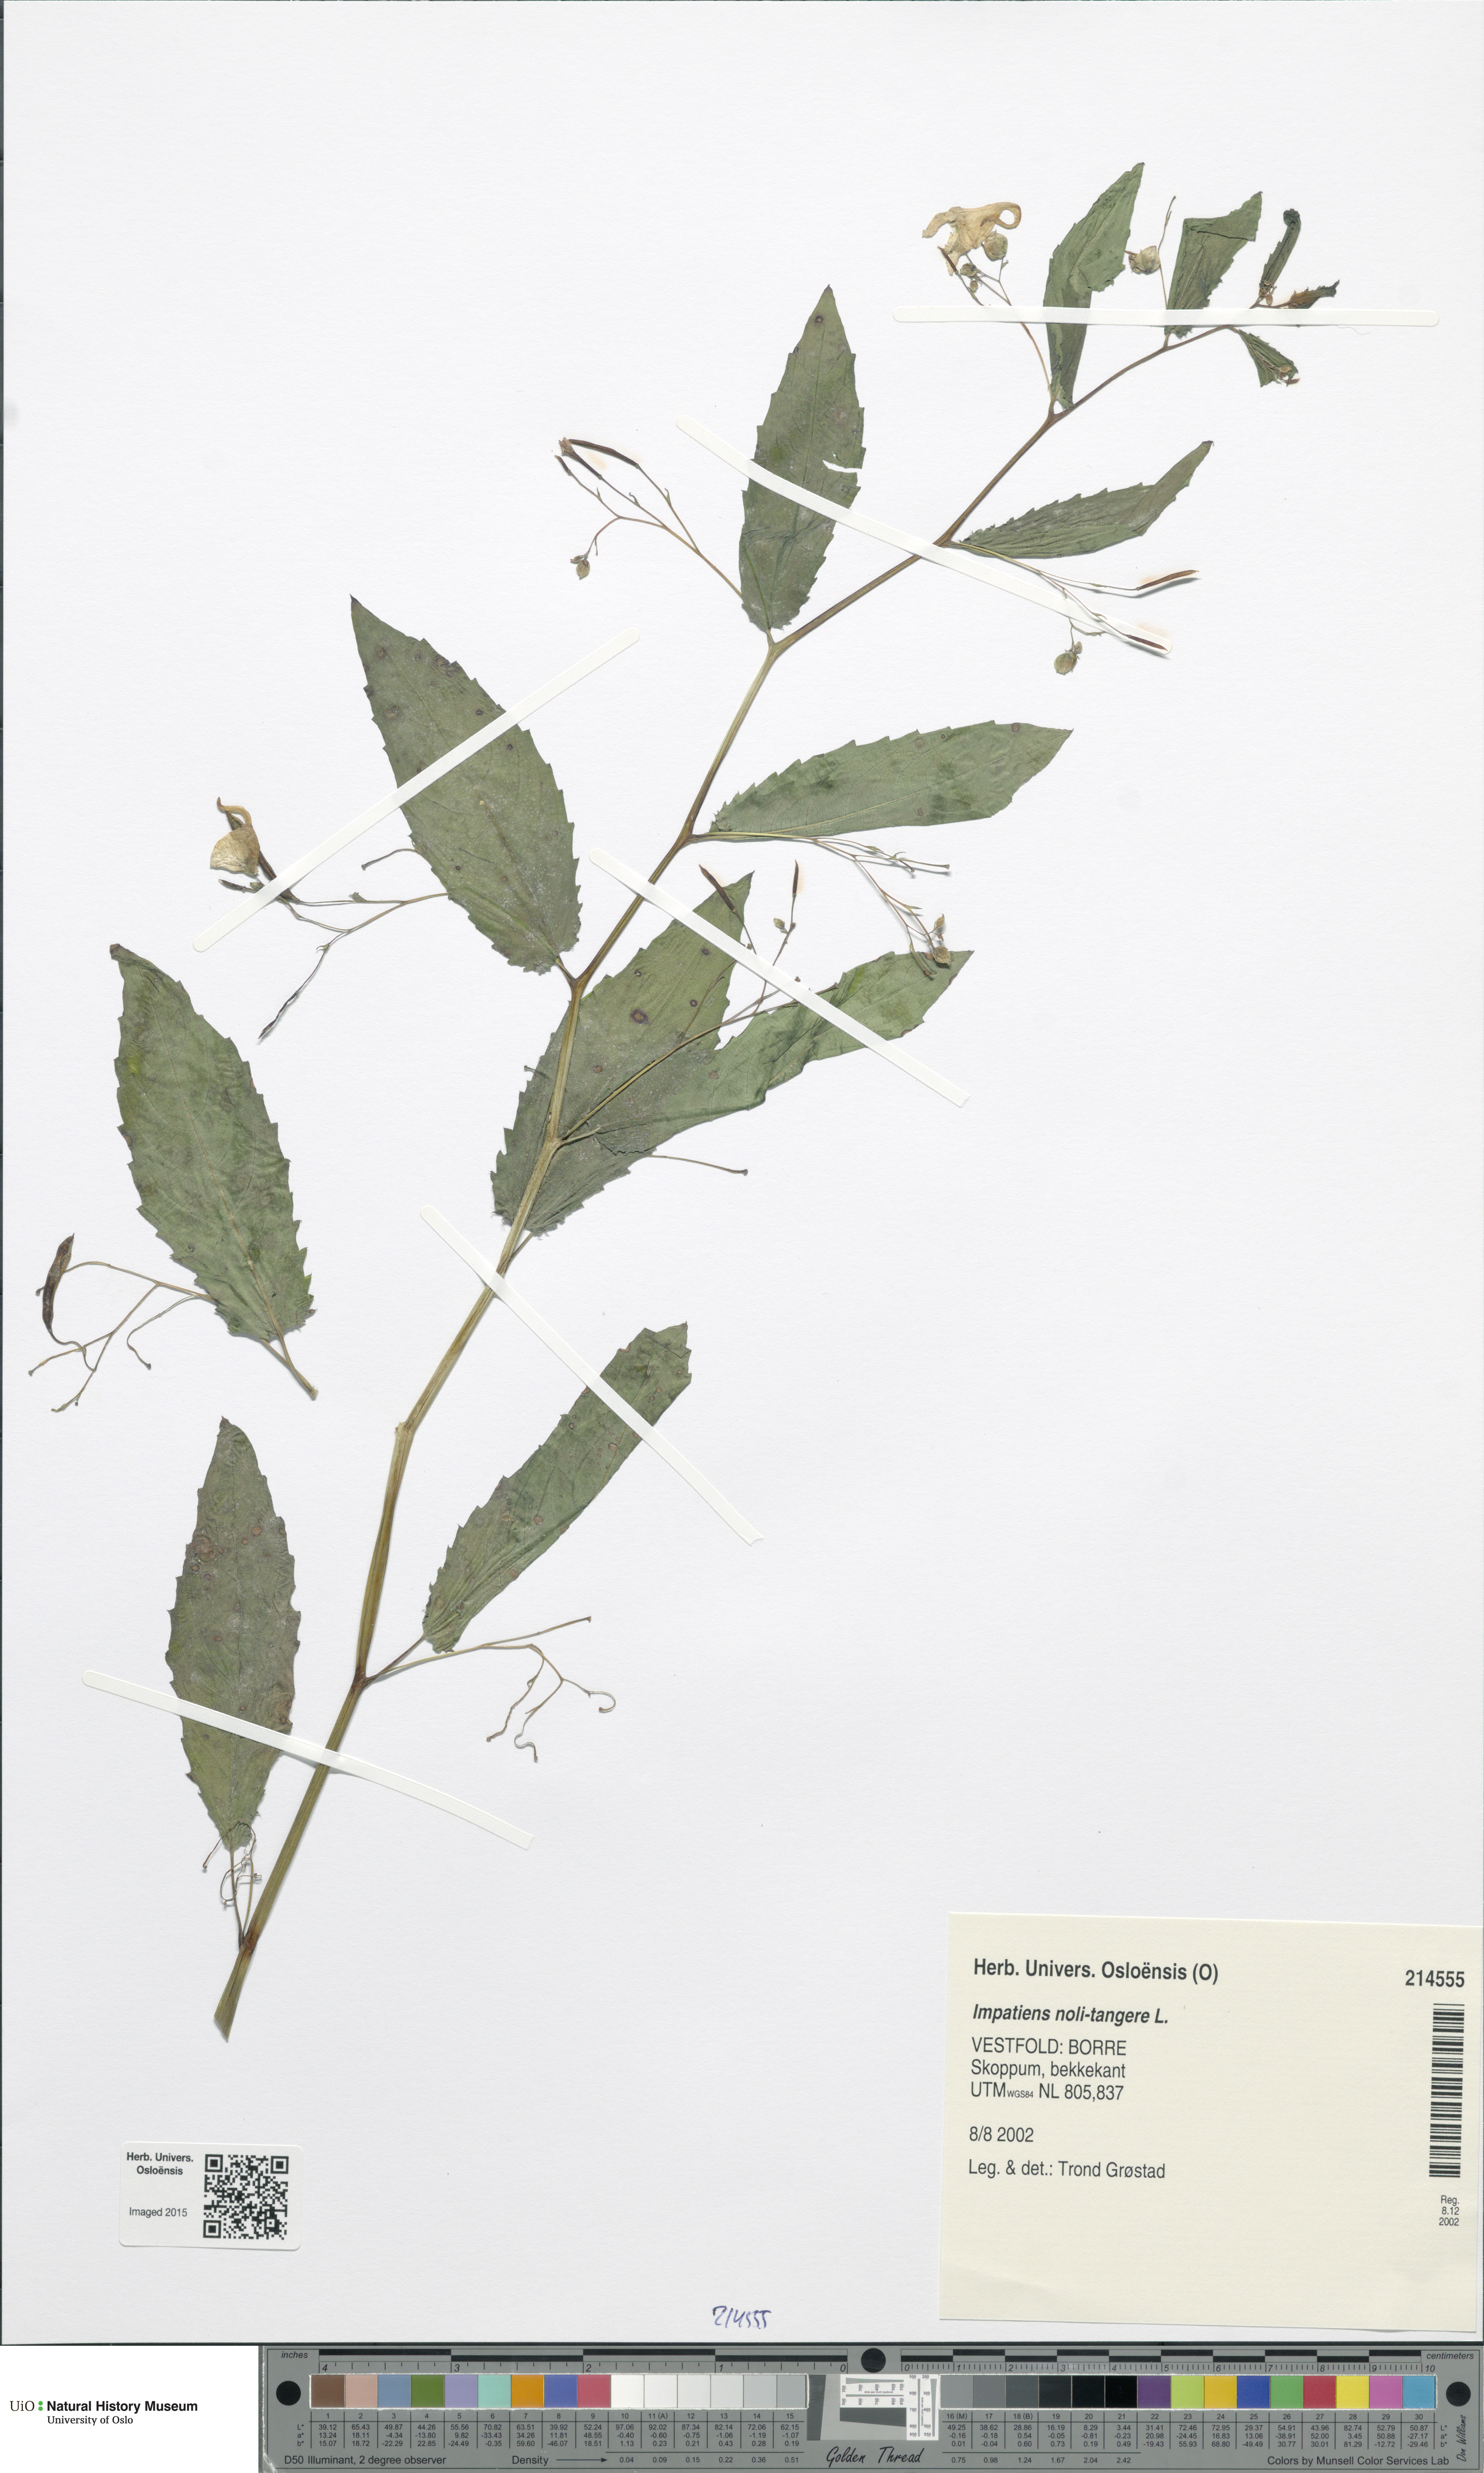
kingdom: Plantae
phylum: Tracheophyta
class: Magnoliopsida
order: Ericales
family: Balsaminaceae
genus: Impatiens
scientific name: Impatiens noli-tangere
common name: Touch-me-not balsam
